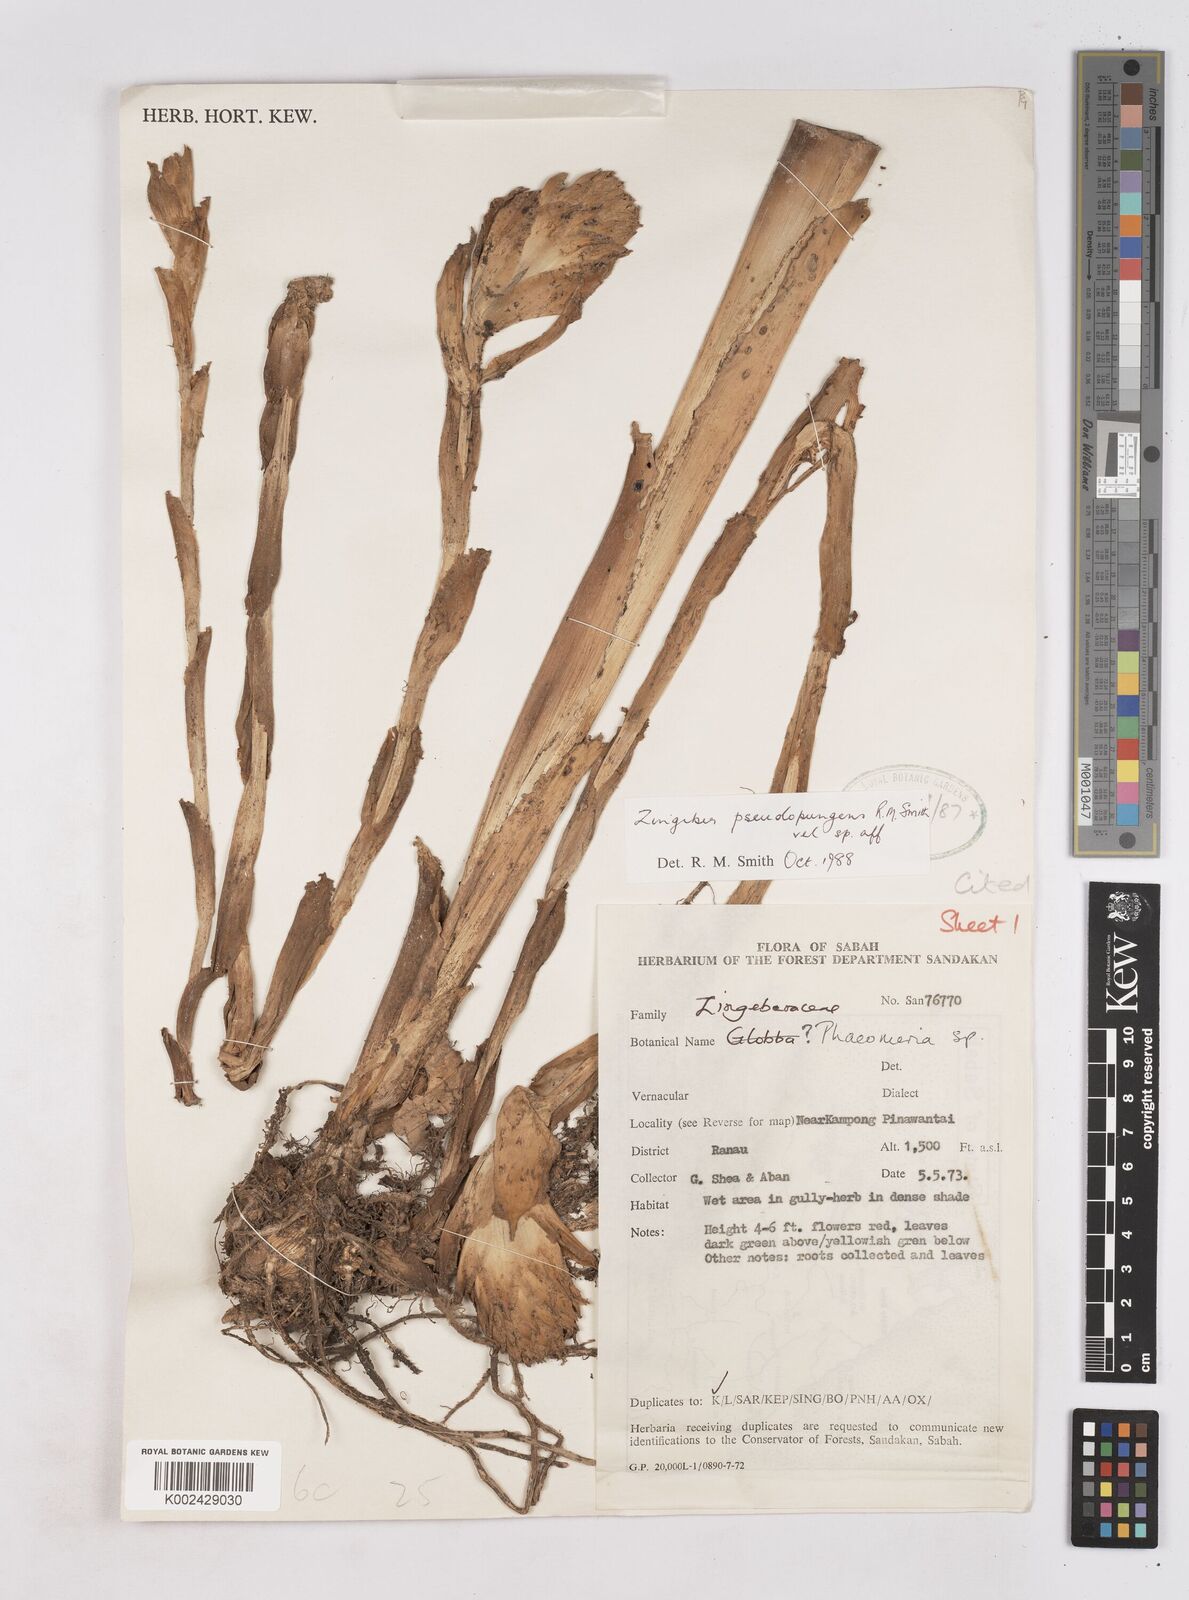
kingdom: Plantae
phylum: Tracheophyta
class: Liliopsida
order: Zingiberales
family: Zingiberaceae
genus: Zingiber
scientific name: Zingiber pseudopungens
